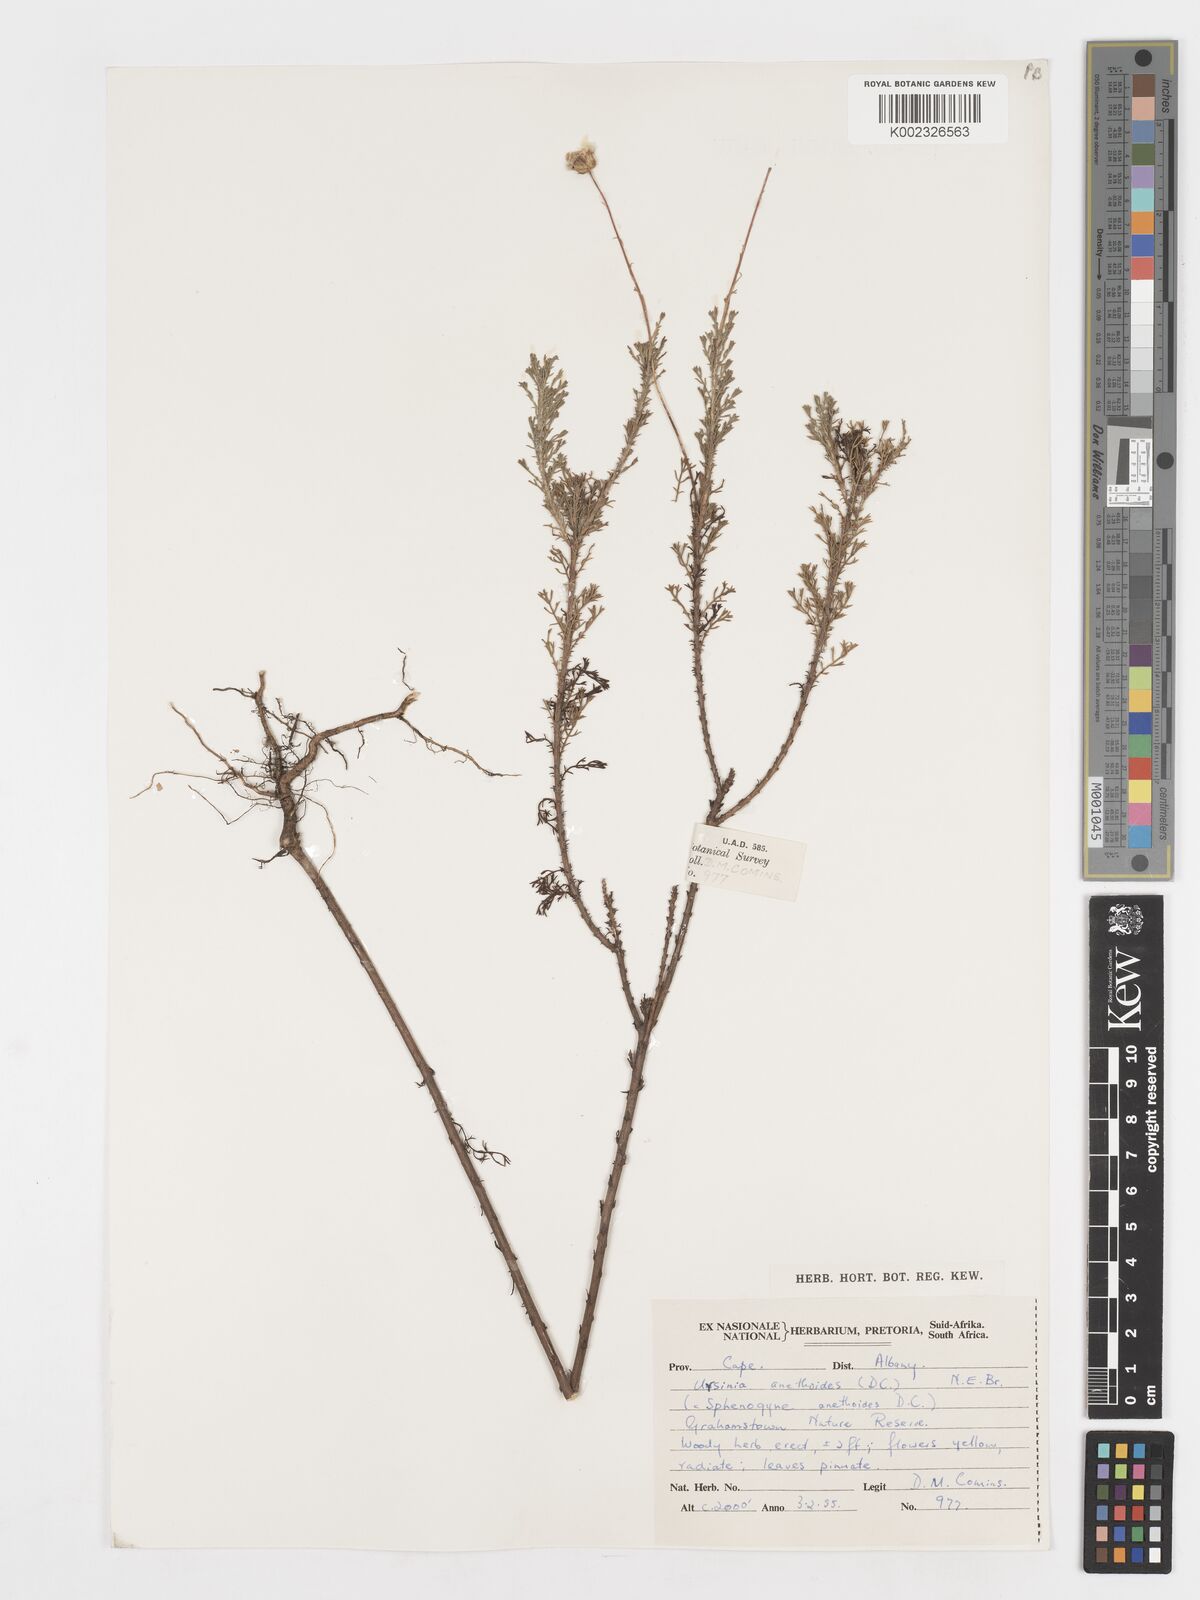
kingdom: Plantae
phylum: Tracheophyta
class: Magnoliopsida
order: Asterales
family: Asteraceae
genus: Ursinia
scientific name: Ursinia anethoides
